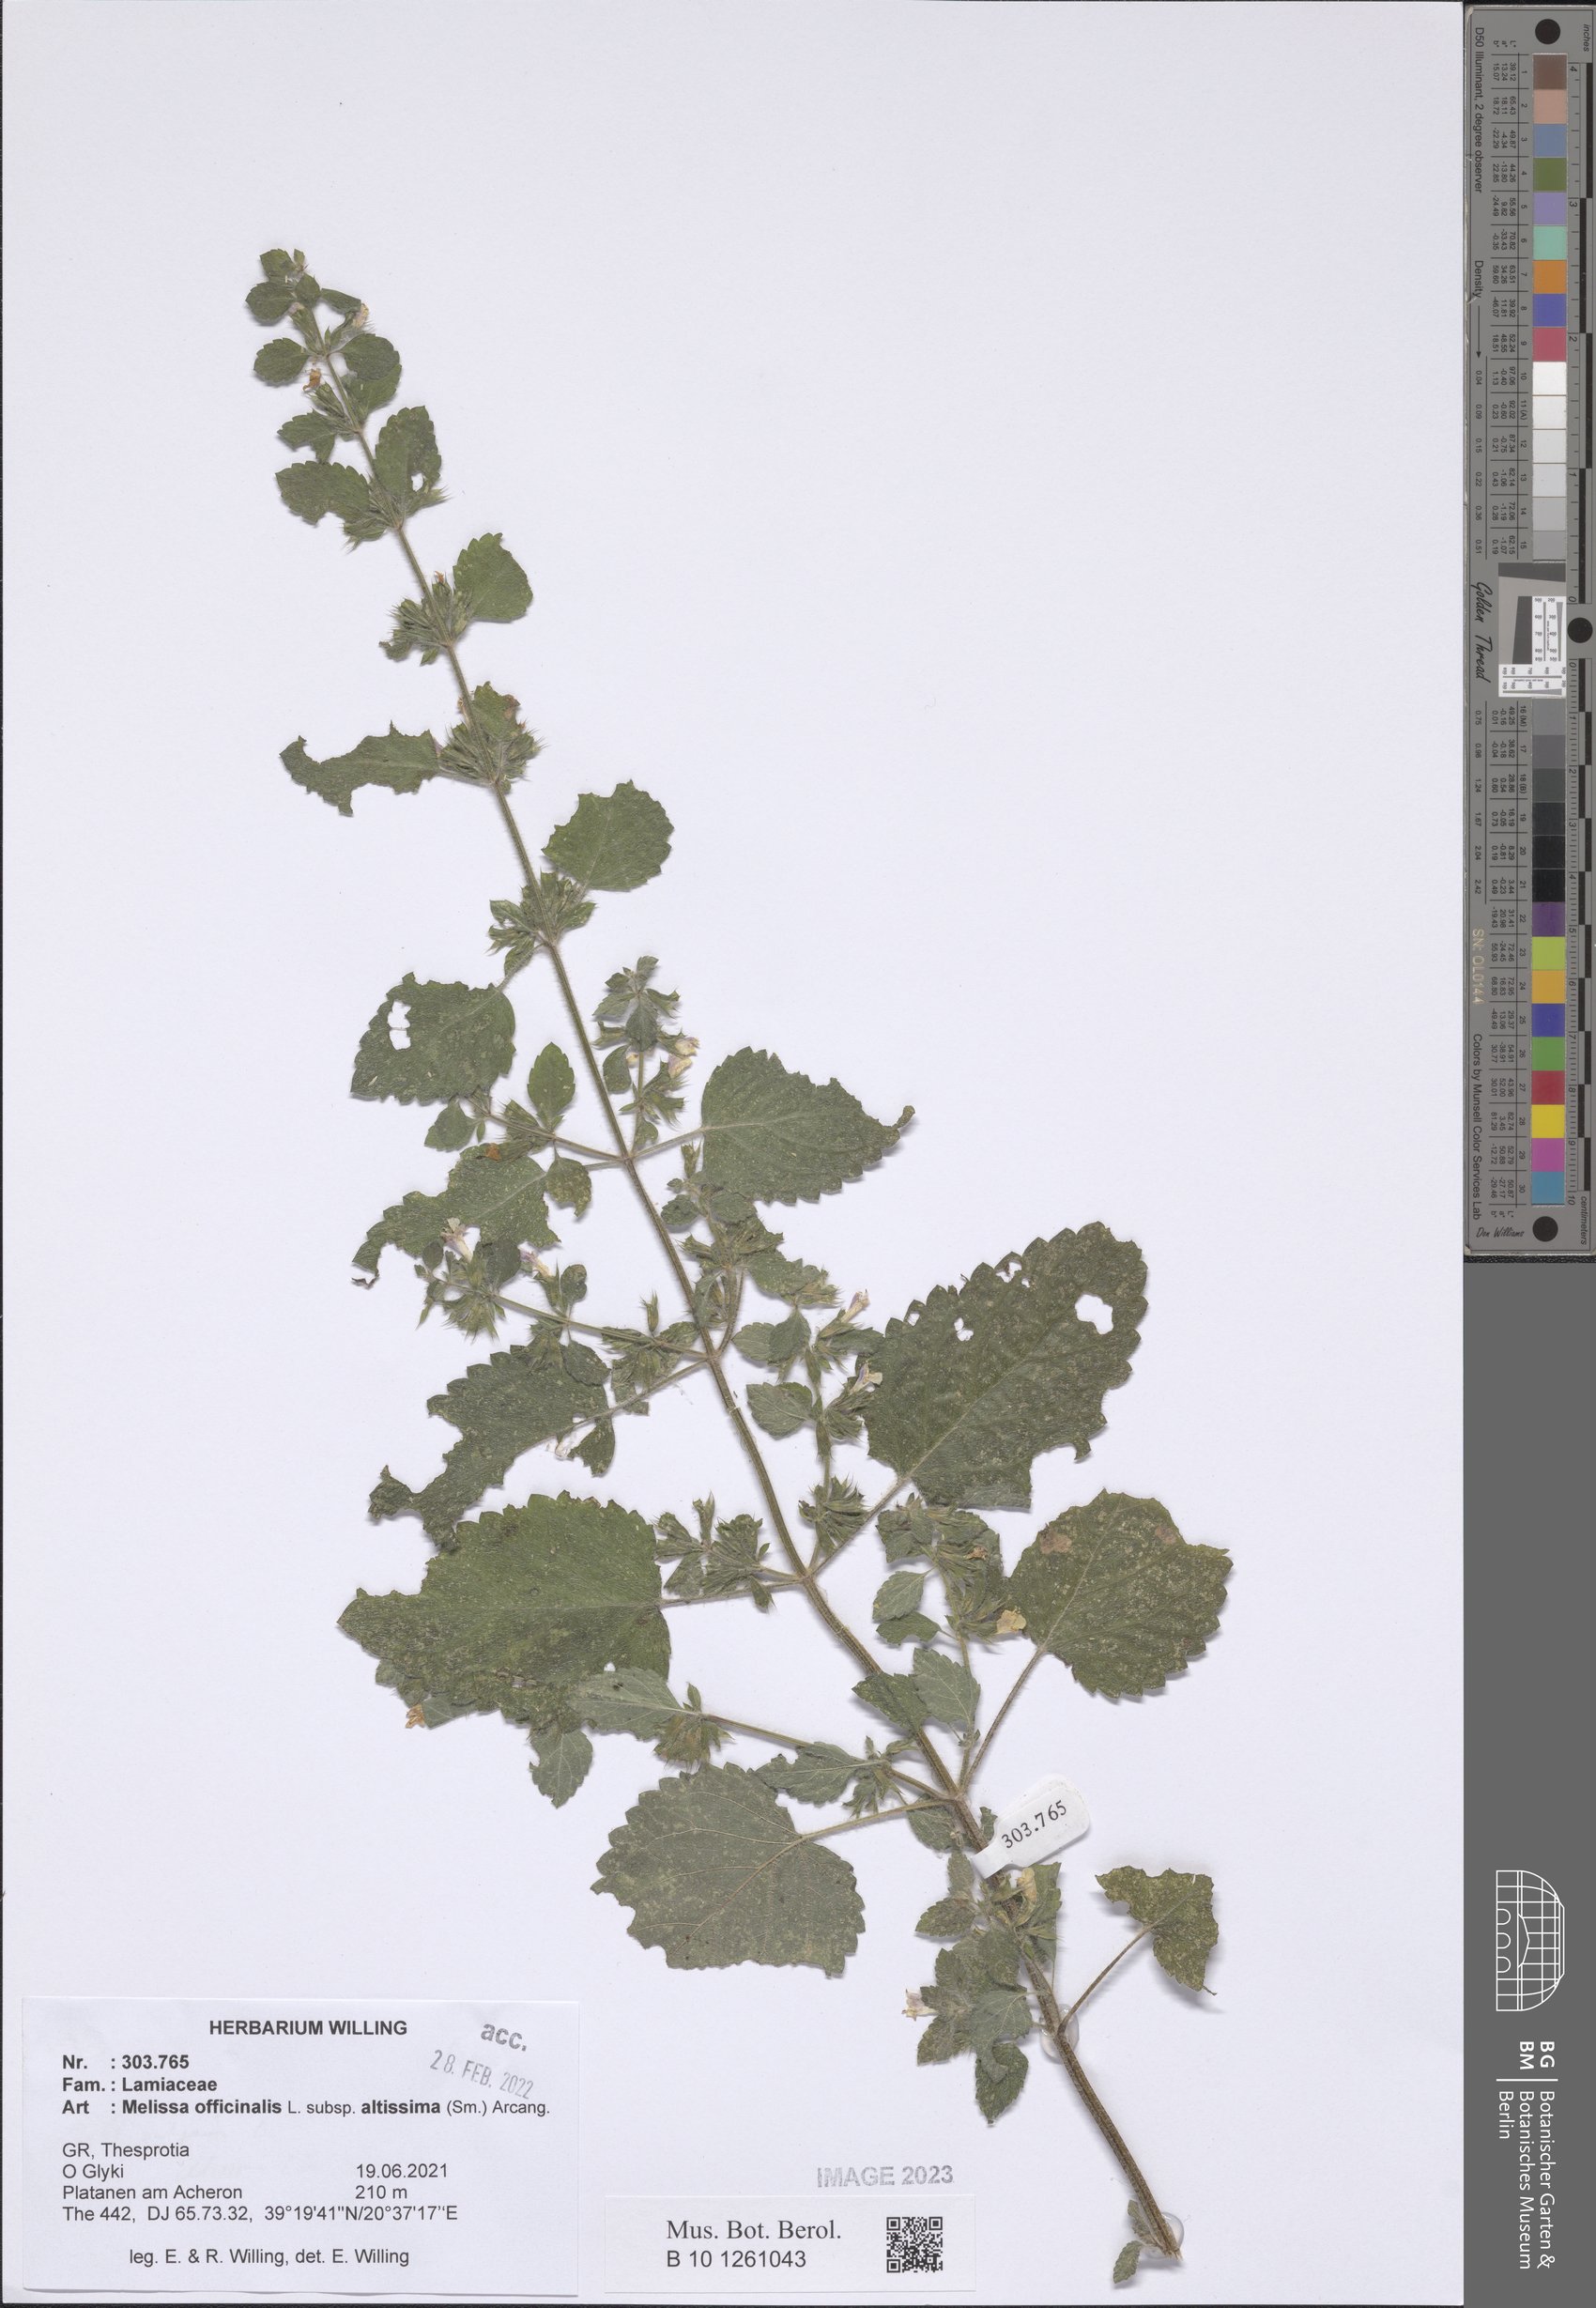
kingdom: Plantae
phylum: Tracheophyta
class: Magnoliopsida
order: Lamiales
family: Lamiaceae
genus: Melissa
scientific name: Melissa officinalis
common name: Balm
